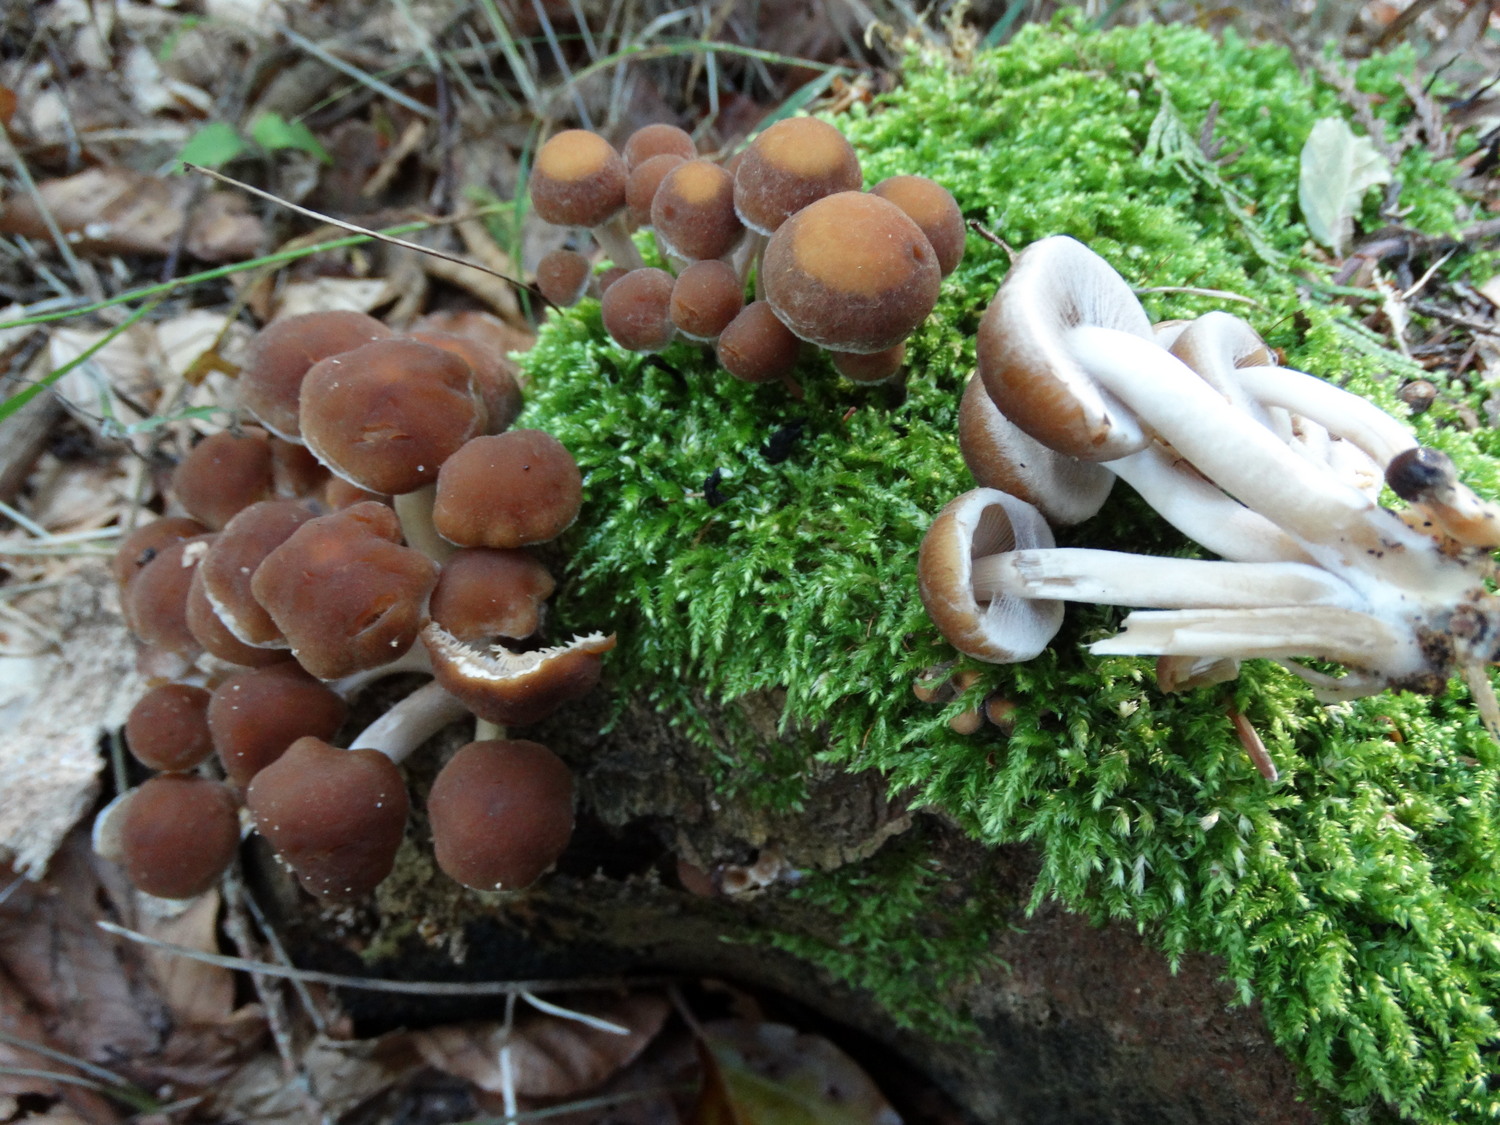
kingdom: Fungi
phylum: Basidiomycota
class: Agaricomycetes
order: Agaricales
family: Psathyrellaceae
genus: Psathyrella
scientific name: Psathyrella piluliformis
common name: lysstokket mørkhat
